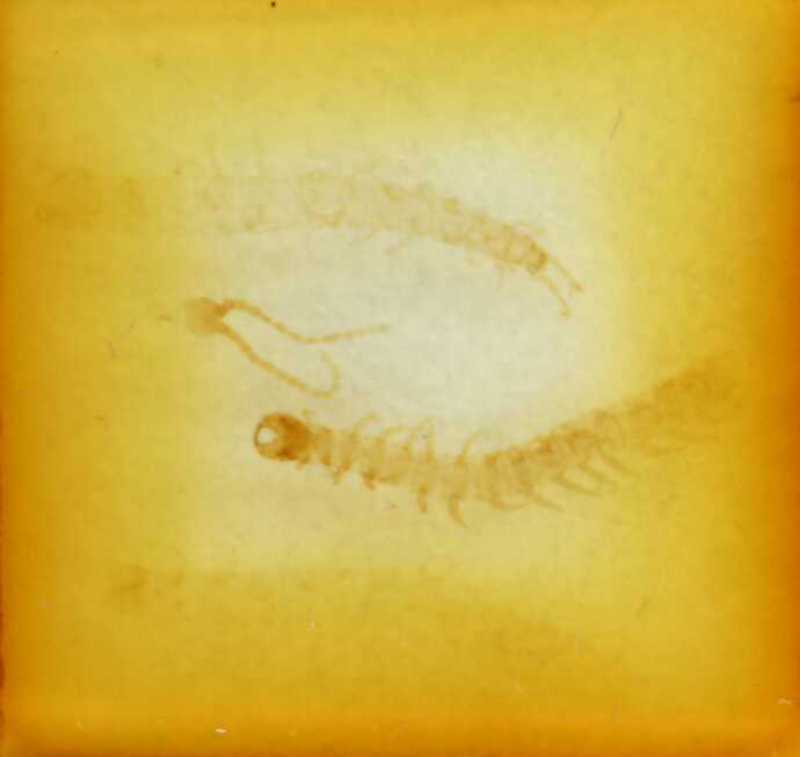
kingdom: Animalia
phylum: Arthropoda
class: Chilopoda
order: Geophilomorpha
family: Geophilidae
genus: Geophilus
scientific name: Geophilus langkofelanus
